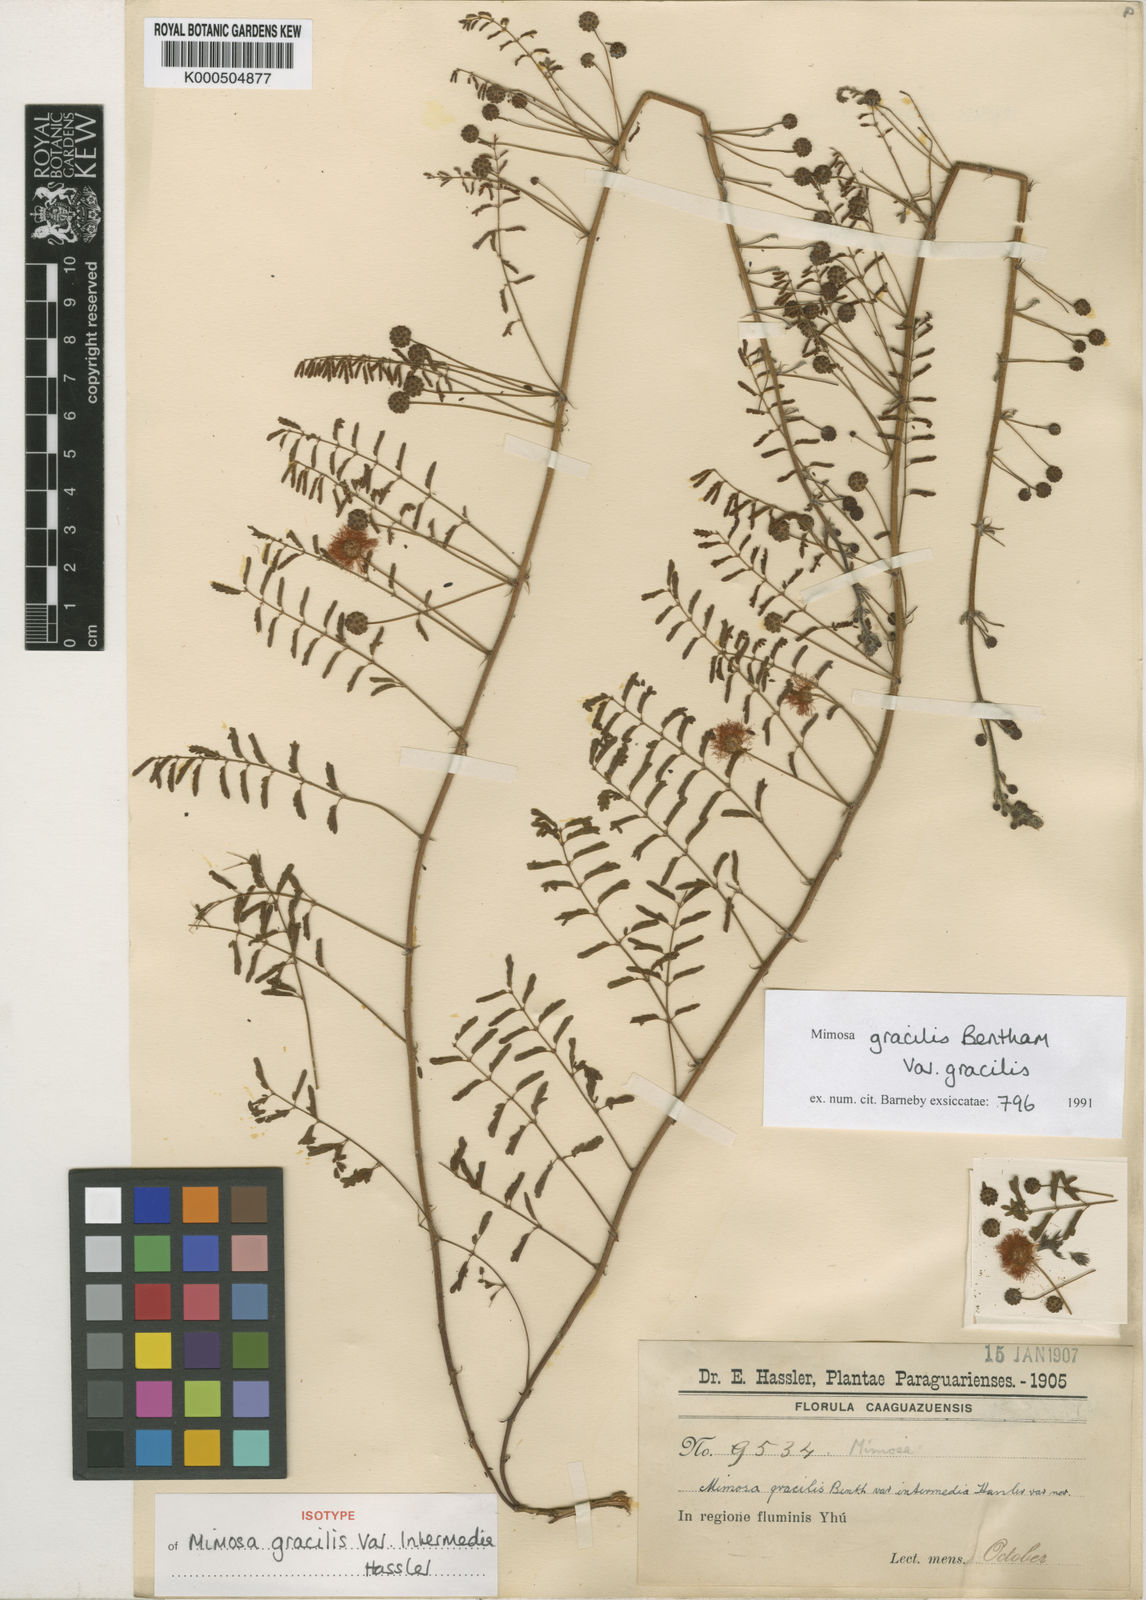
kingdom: Plantae
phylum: Tracheophyta
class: Magnoliopsida
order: Fabales
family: Fabaceae
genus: Mimosa
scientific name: Mimosa gracilis
